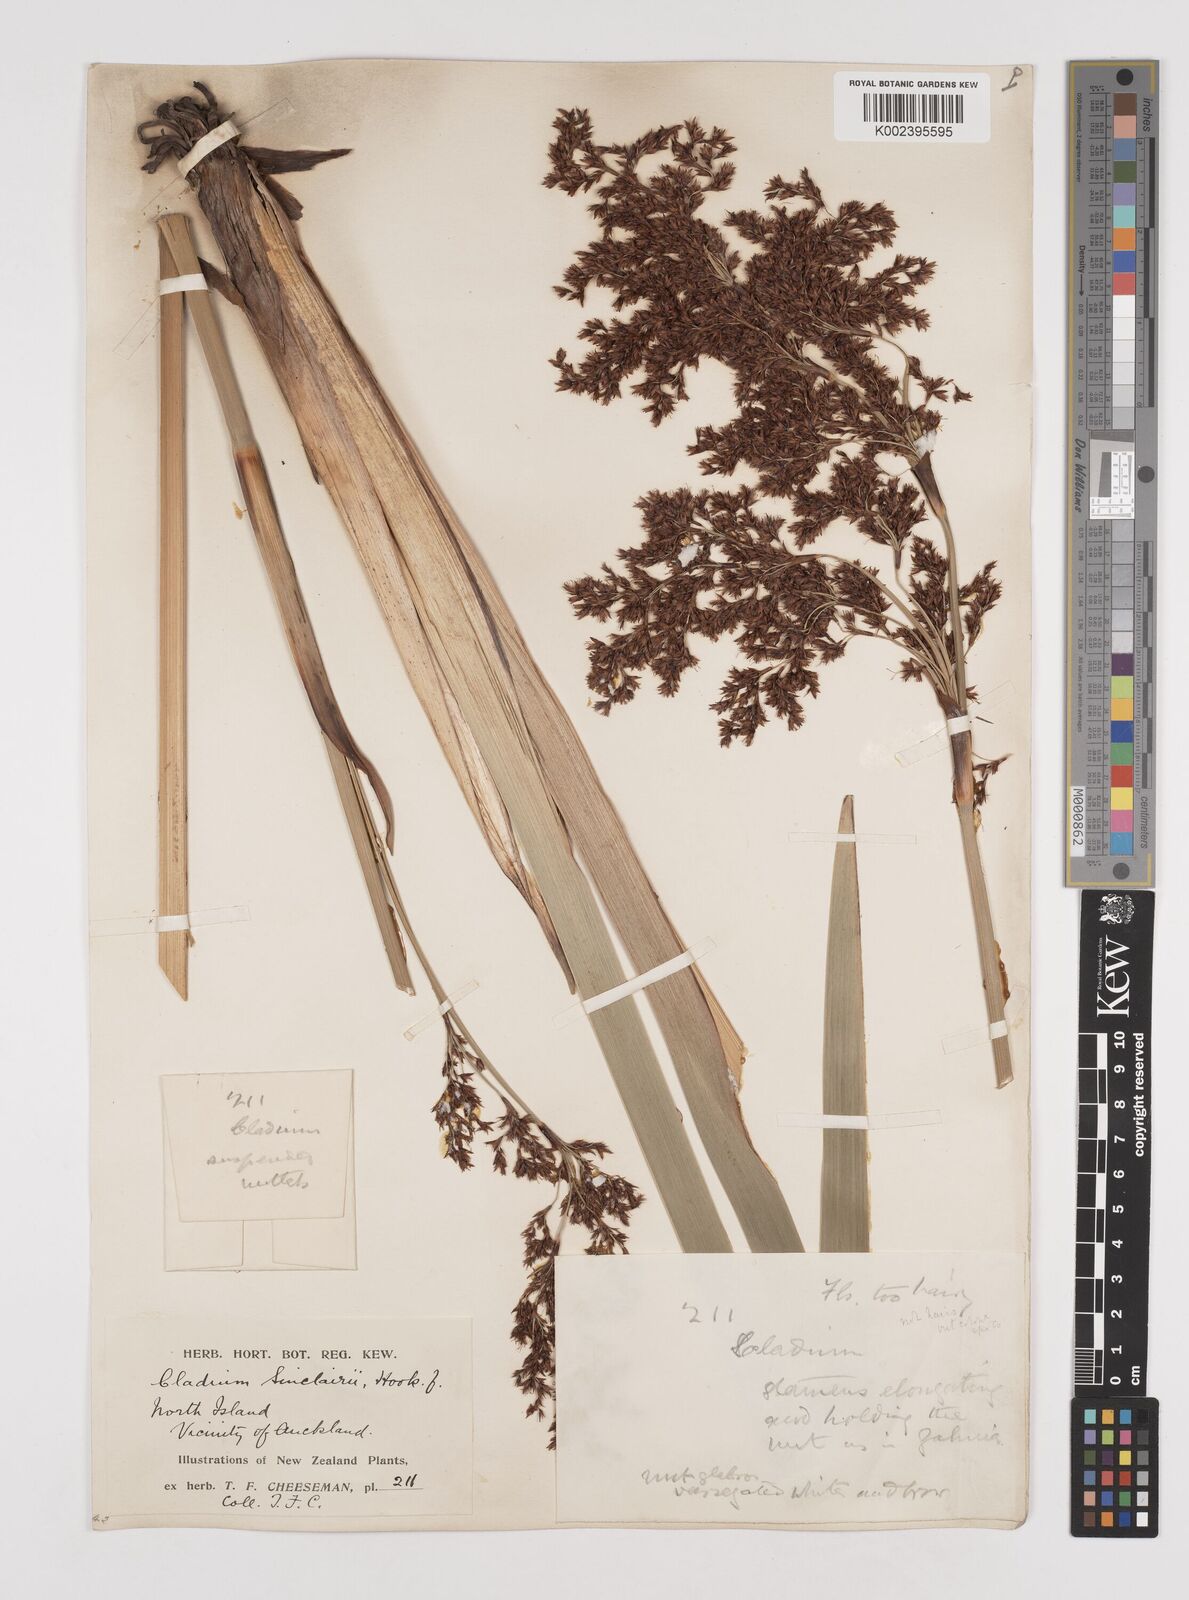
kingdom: Plantae
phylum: Tracheophyta
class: Liliopsida
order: Poales
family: Cyperaceae
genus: Machaerina
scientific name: Machaerina sinclairii
